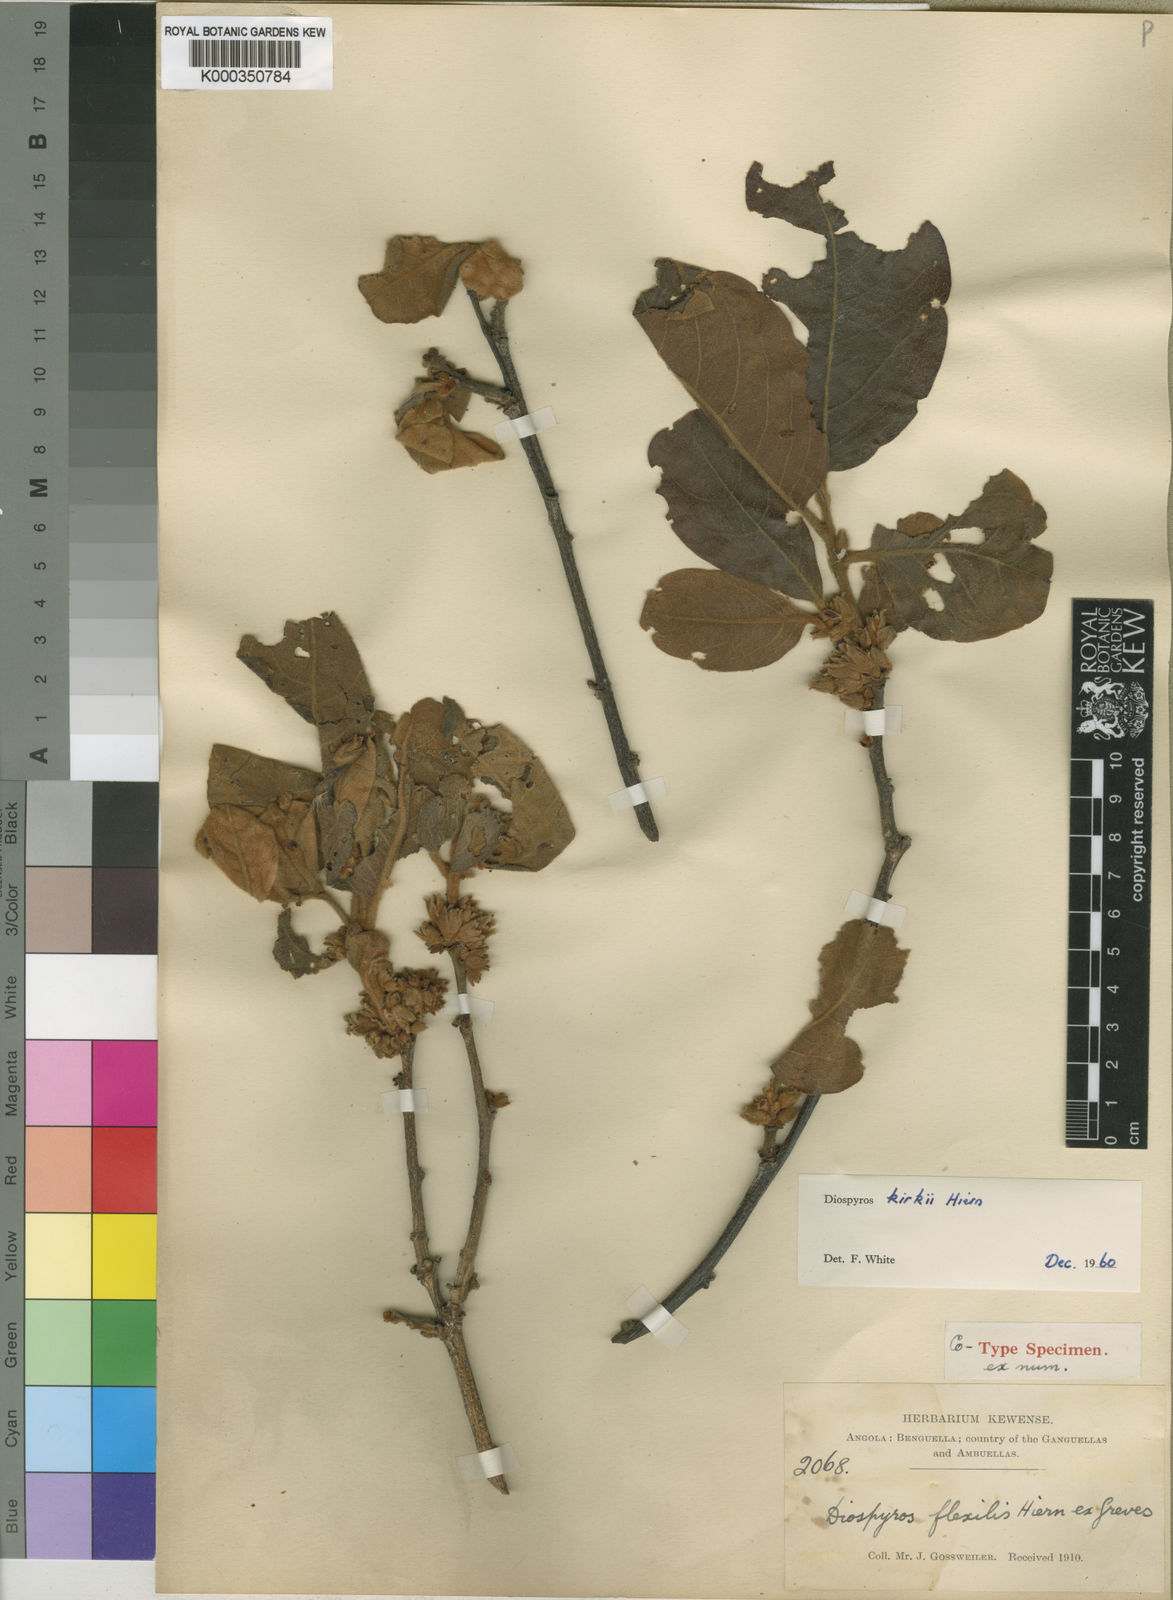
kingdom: Plantae
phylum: Tracheophyta
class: Magnoliopsida
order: Ericales
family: Ebenaceae
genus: Diospyros
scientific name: Diospyros kirkii
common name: Large-leaved jackal berry
